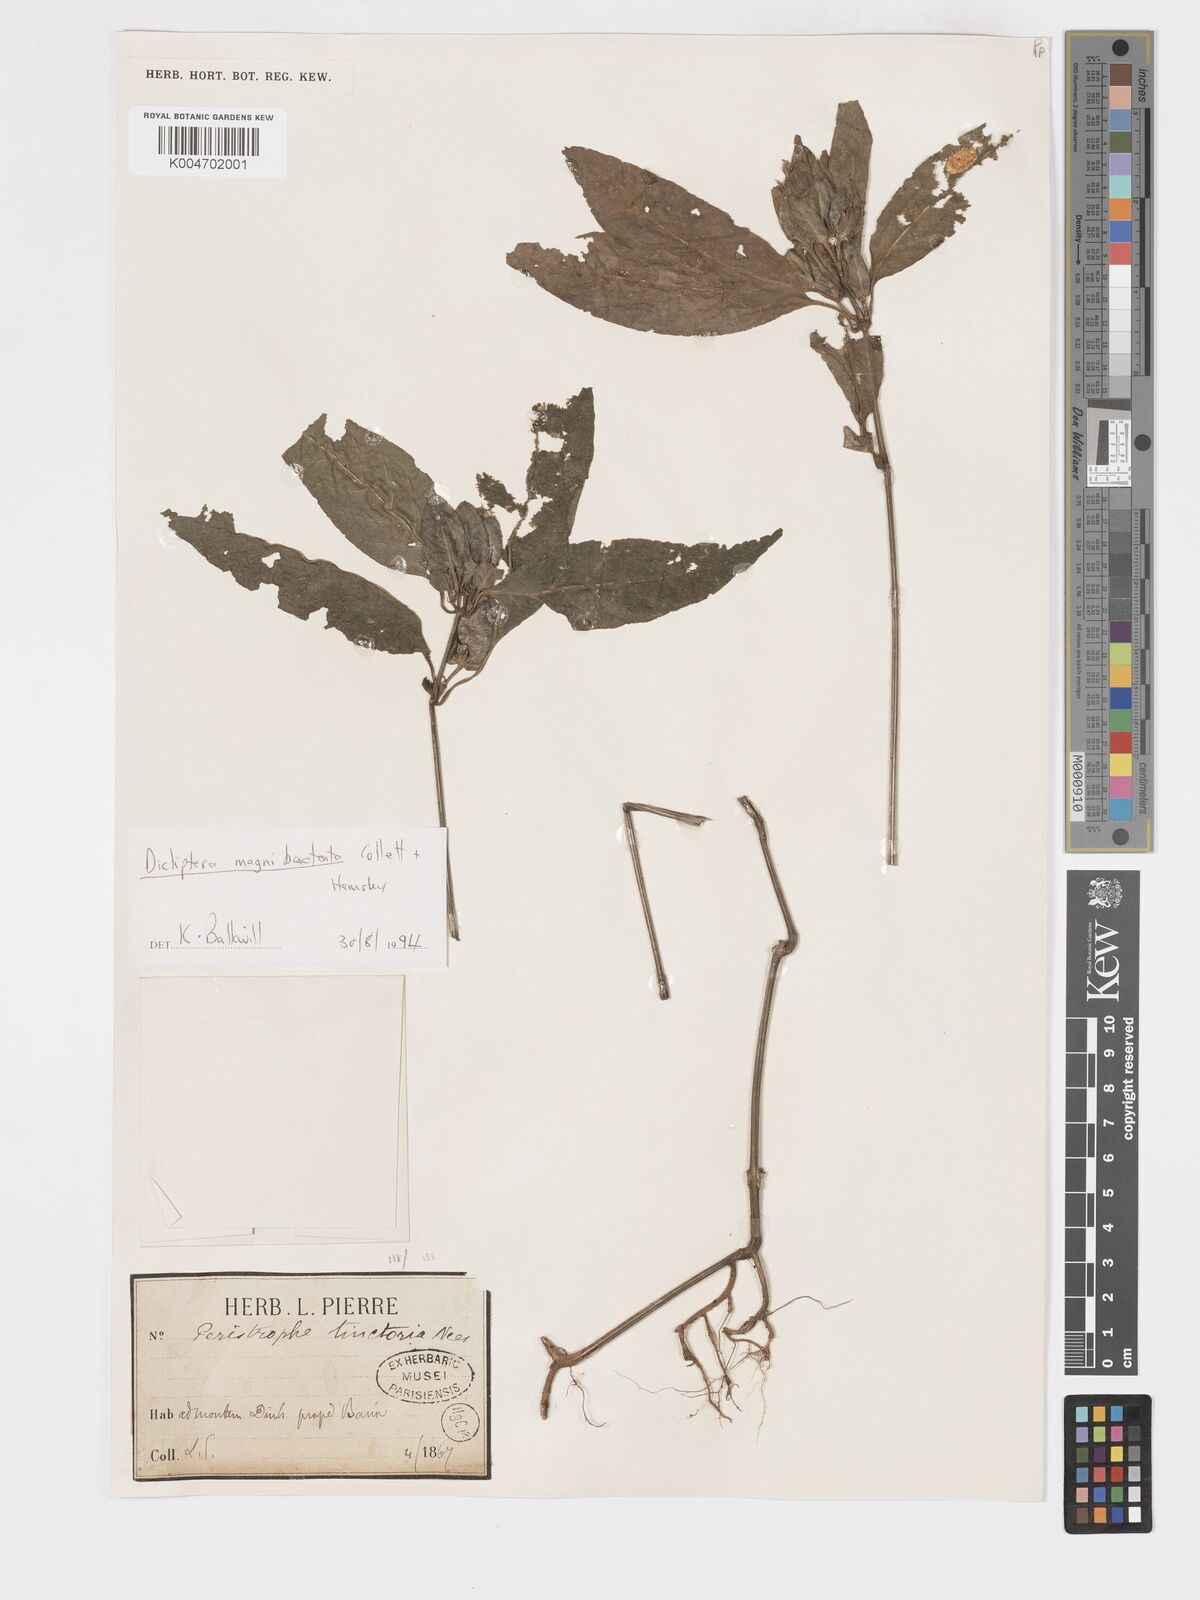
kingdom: Plantae
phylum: Tracheophyta
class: Magnoliopsida
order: Lamiales
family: Acanthaceae
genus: Dicliptera
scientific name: Dicliptera magnibracteata
